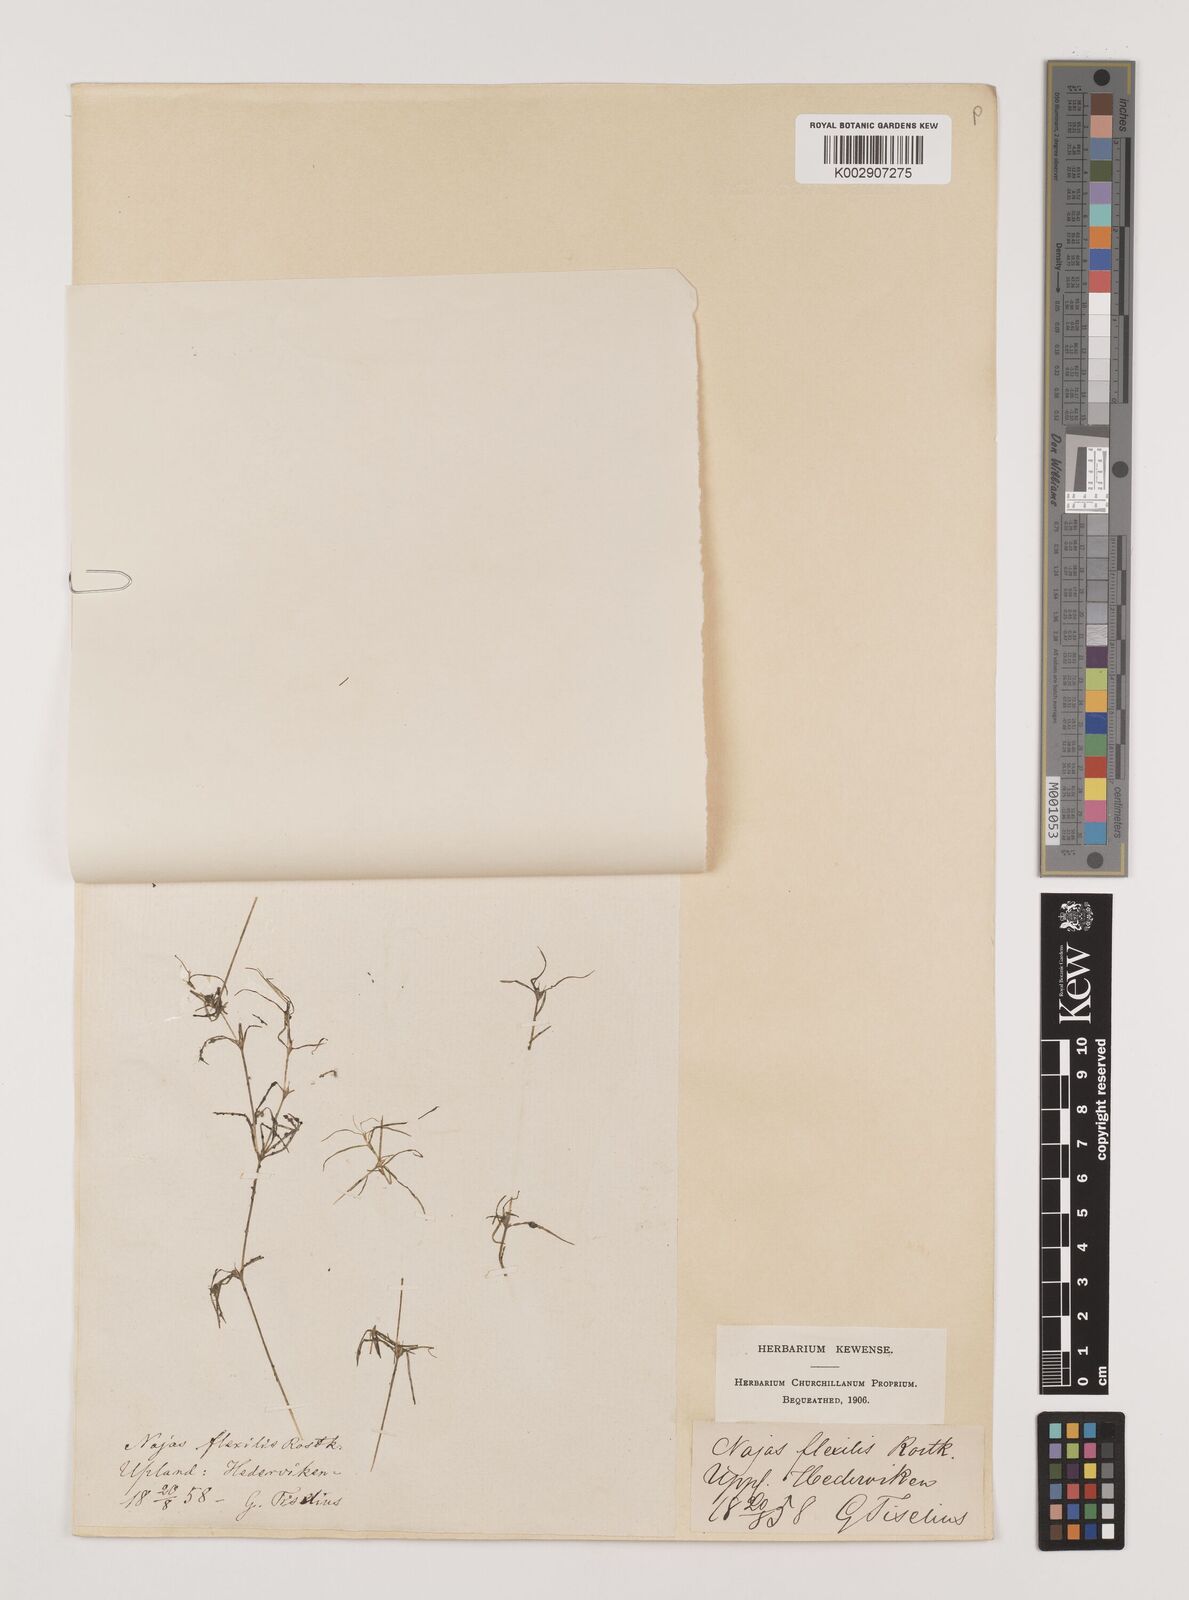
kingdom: Plantae
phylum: Tracheophyta
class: Liliopsida
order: Alismatales
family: Hydrocharitaceae
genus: Najas
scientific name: Najas flexilis
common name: Slender naiad
